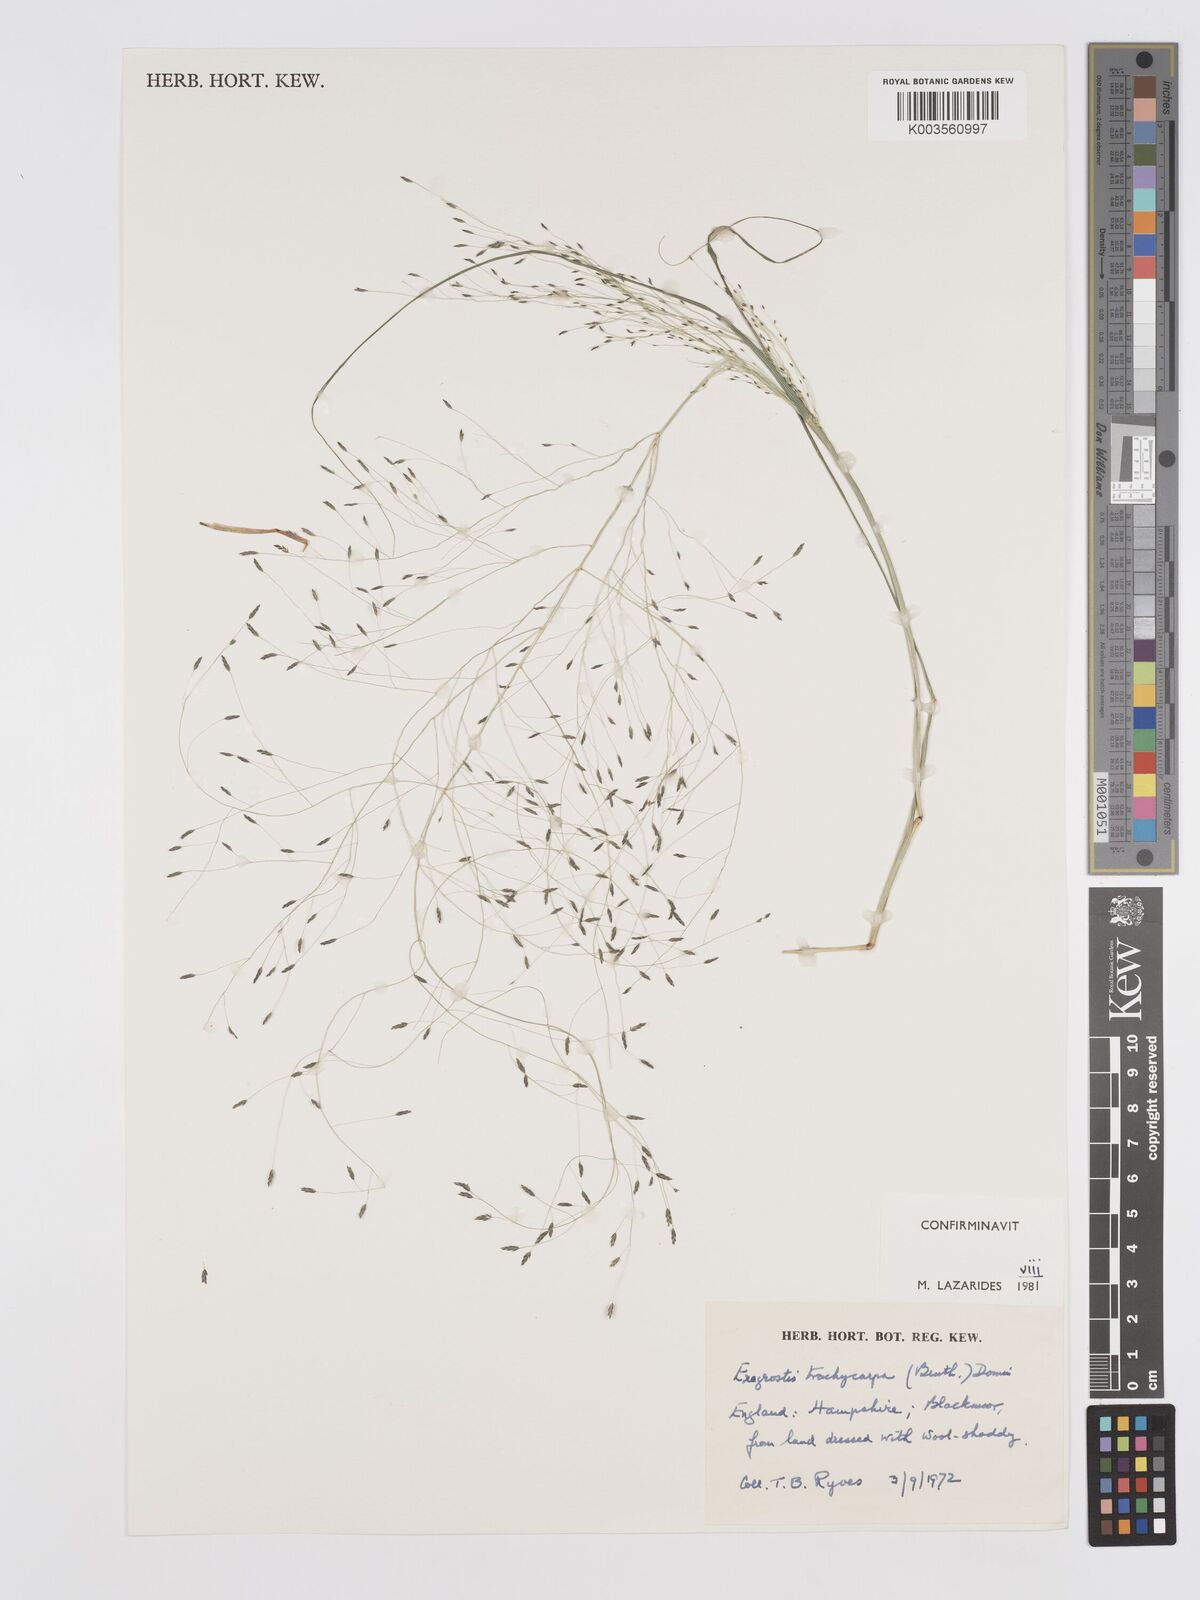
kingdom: Plantae
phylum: Tracheophyta
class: Liliopsida
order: Poales
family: Poaceae
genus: Eragrostis
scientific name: Eragrostis trachycarpa
